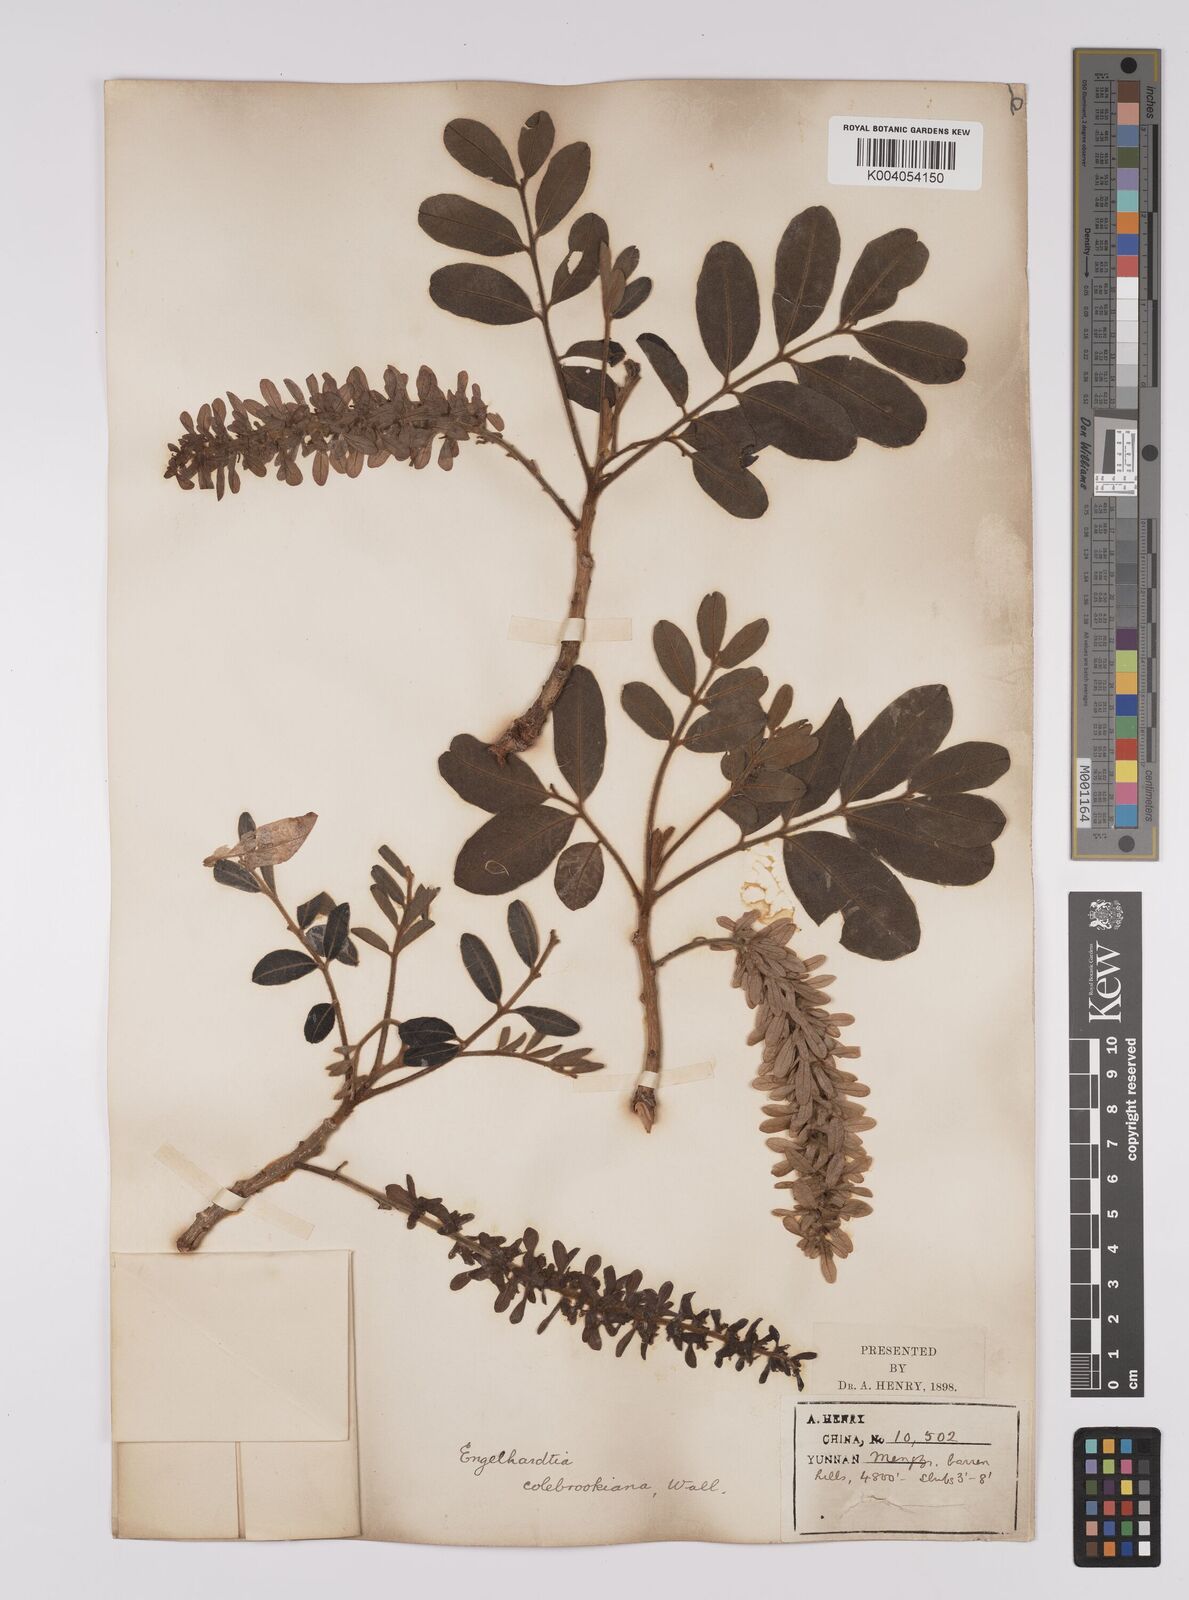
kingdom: Plantae
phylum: Tracheophyta
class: Magnoliopsida
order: Fagales
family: Juglandaceae
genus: Engelhardia
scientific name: Engelhardia spicata
